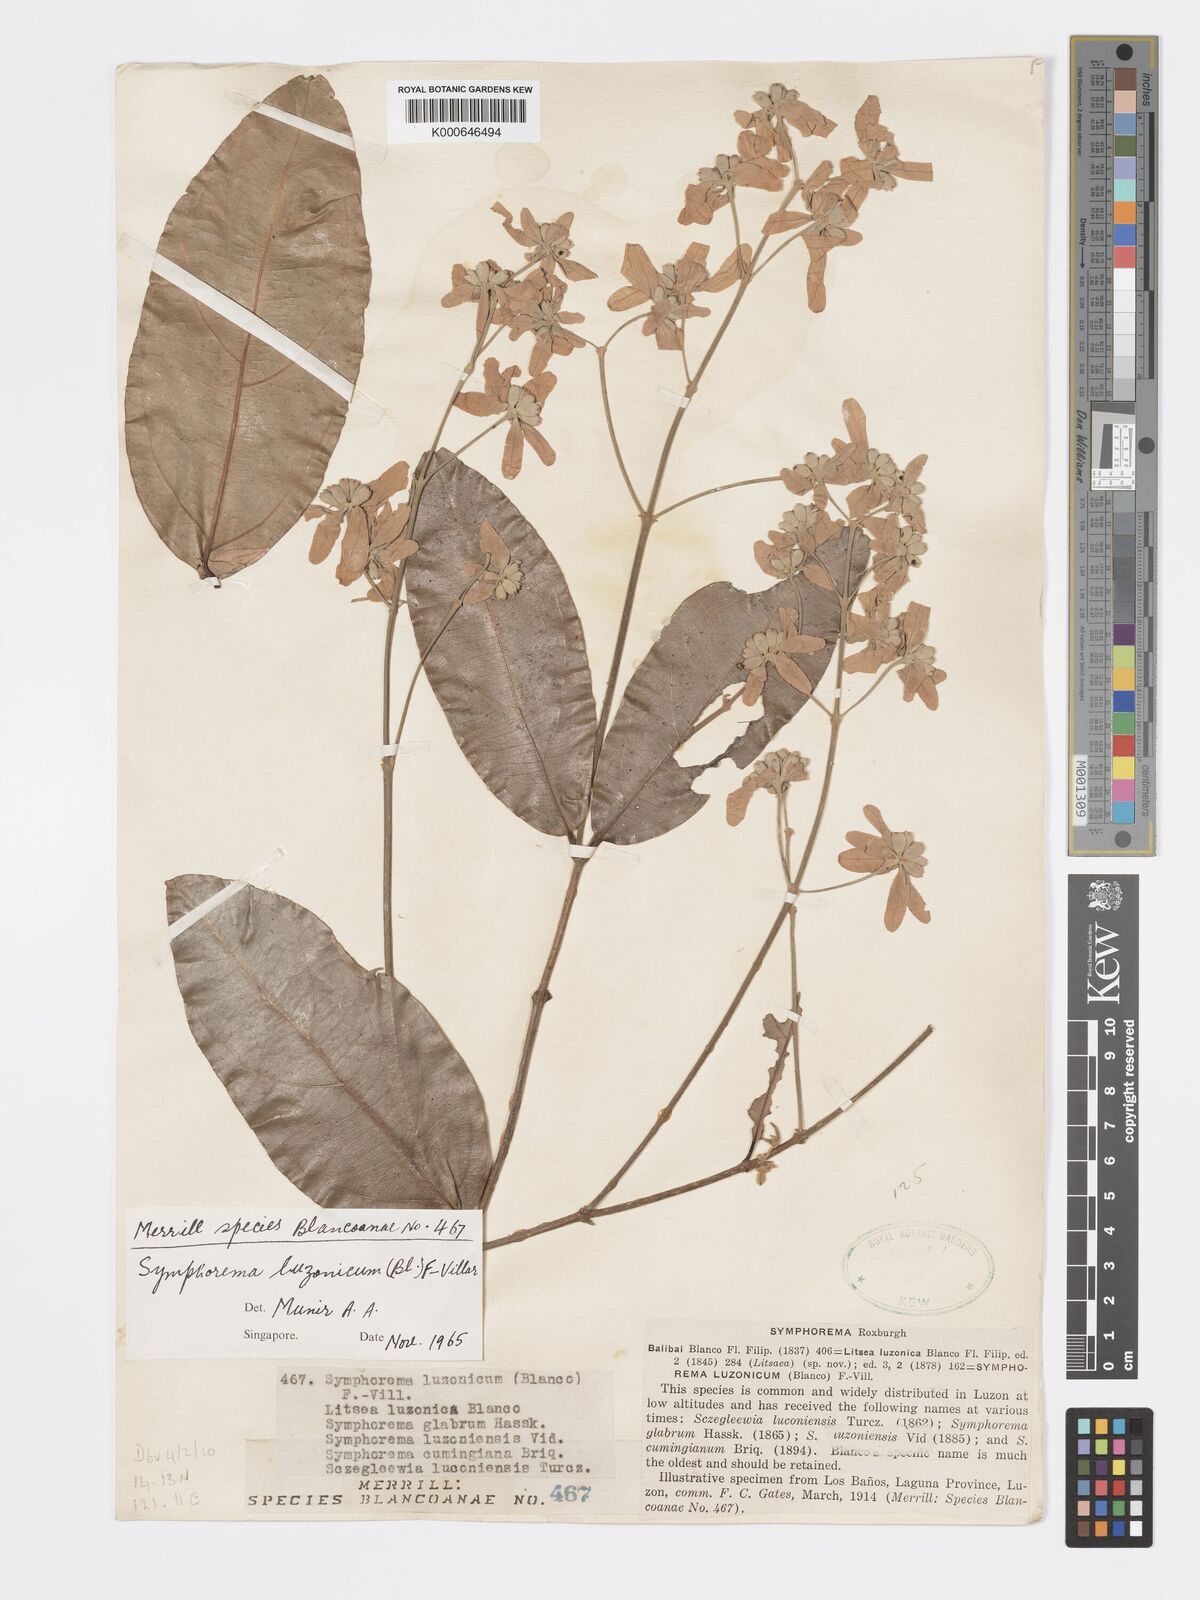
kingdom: Plantae
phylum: Tracheophyta
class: Magnoliopsida
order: Lamiales
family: Lamiaceae
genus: Symphorema
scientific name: Symphorema luzonicum
